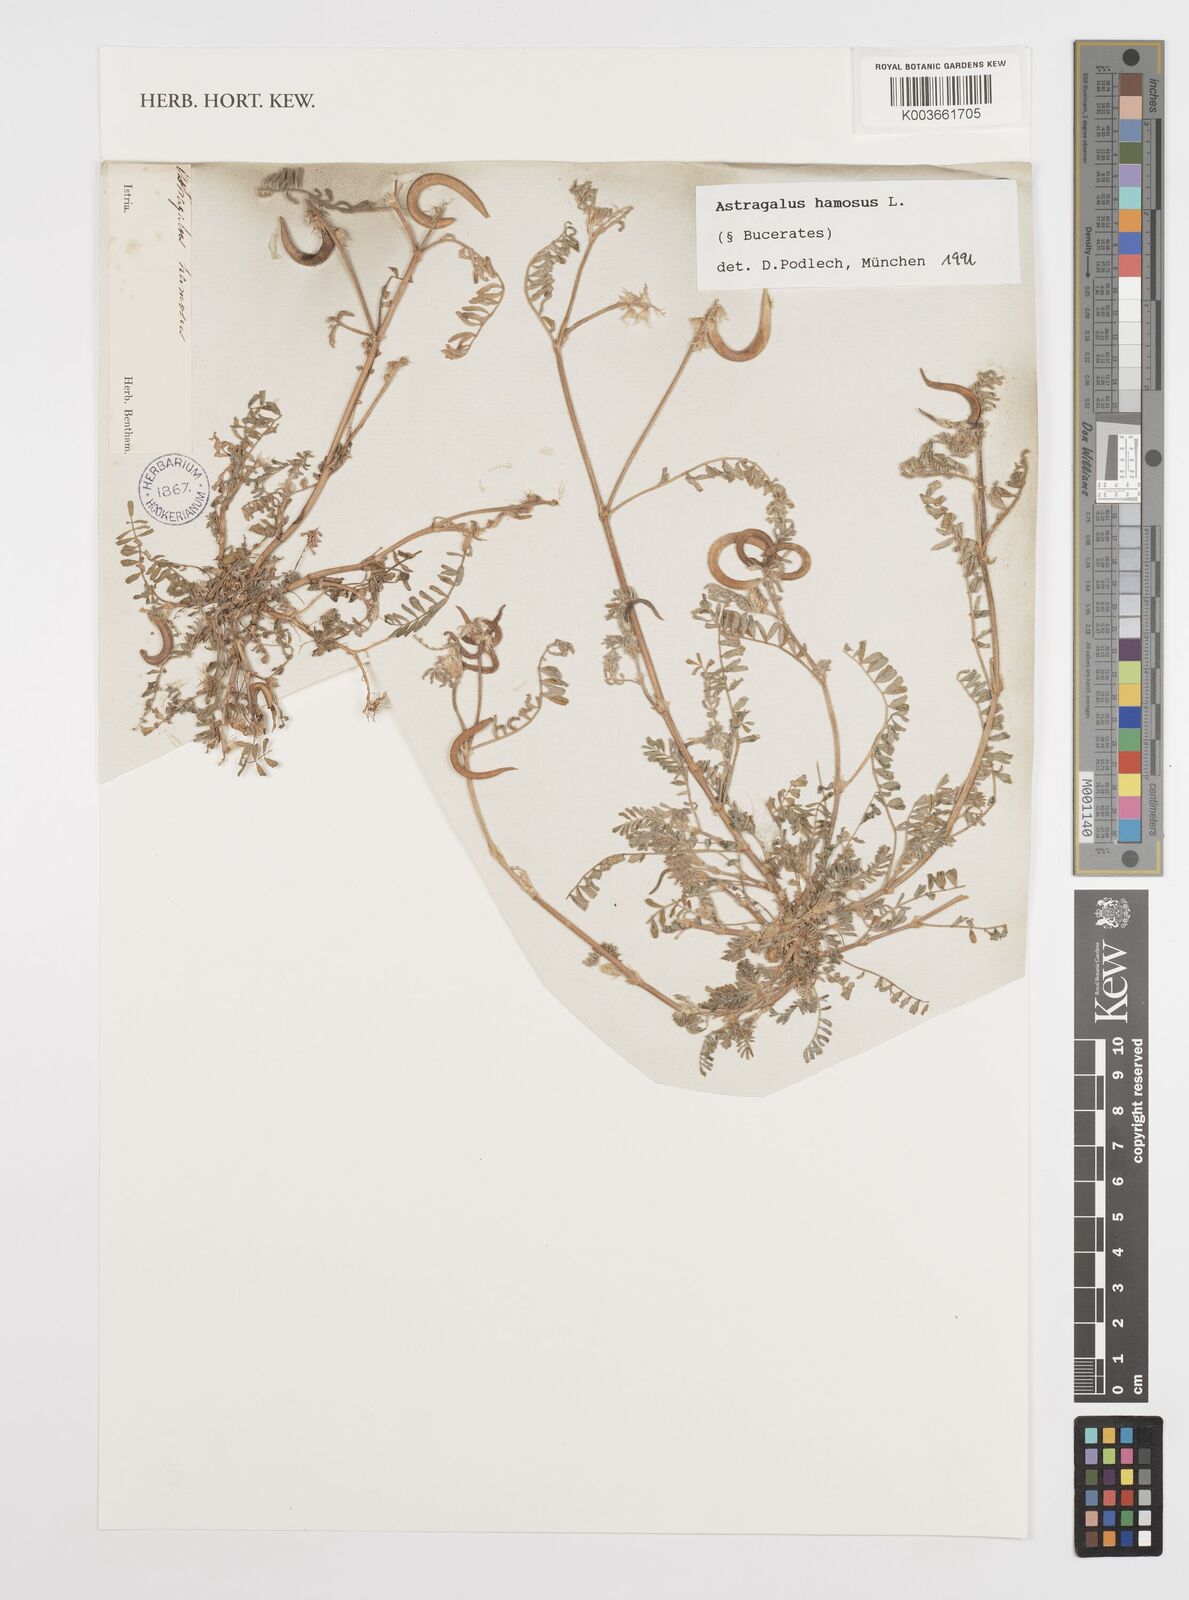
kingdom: Plantae
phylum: Tracheophyta
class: Magnoliopsida
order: Fabales
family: Fabaceae
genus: Astragalus
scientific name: Astragalus hamosus
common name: European milkvetch
